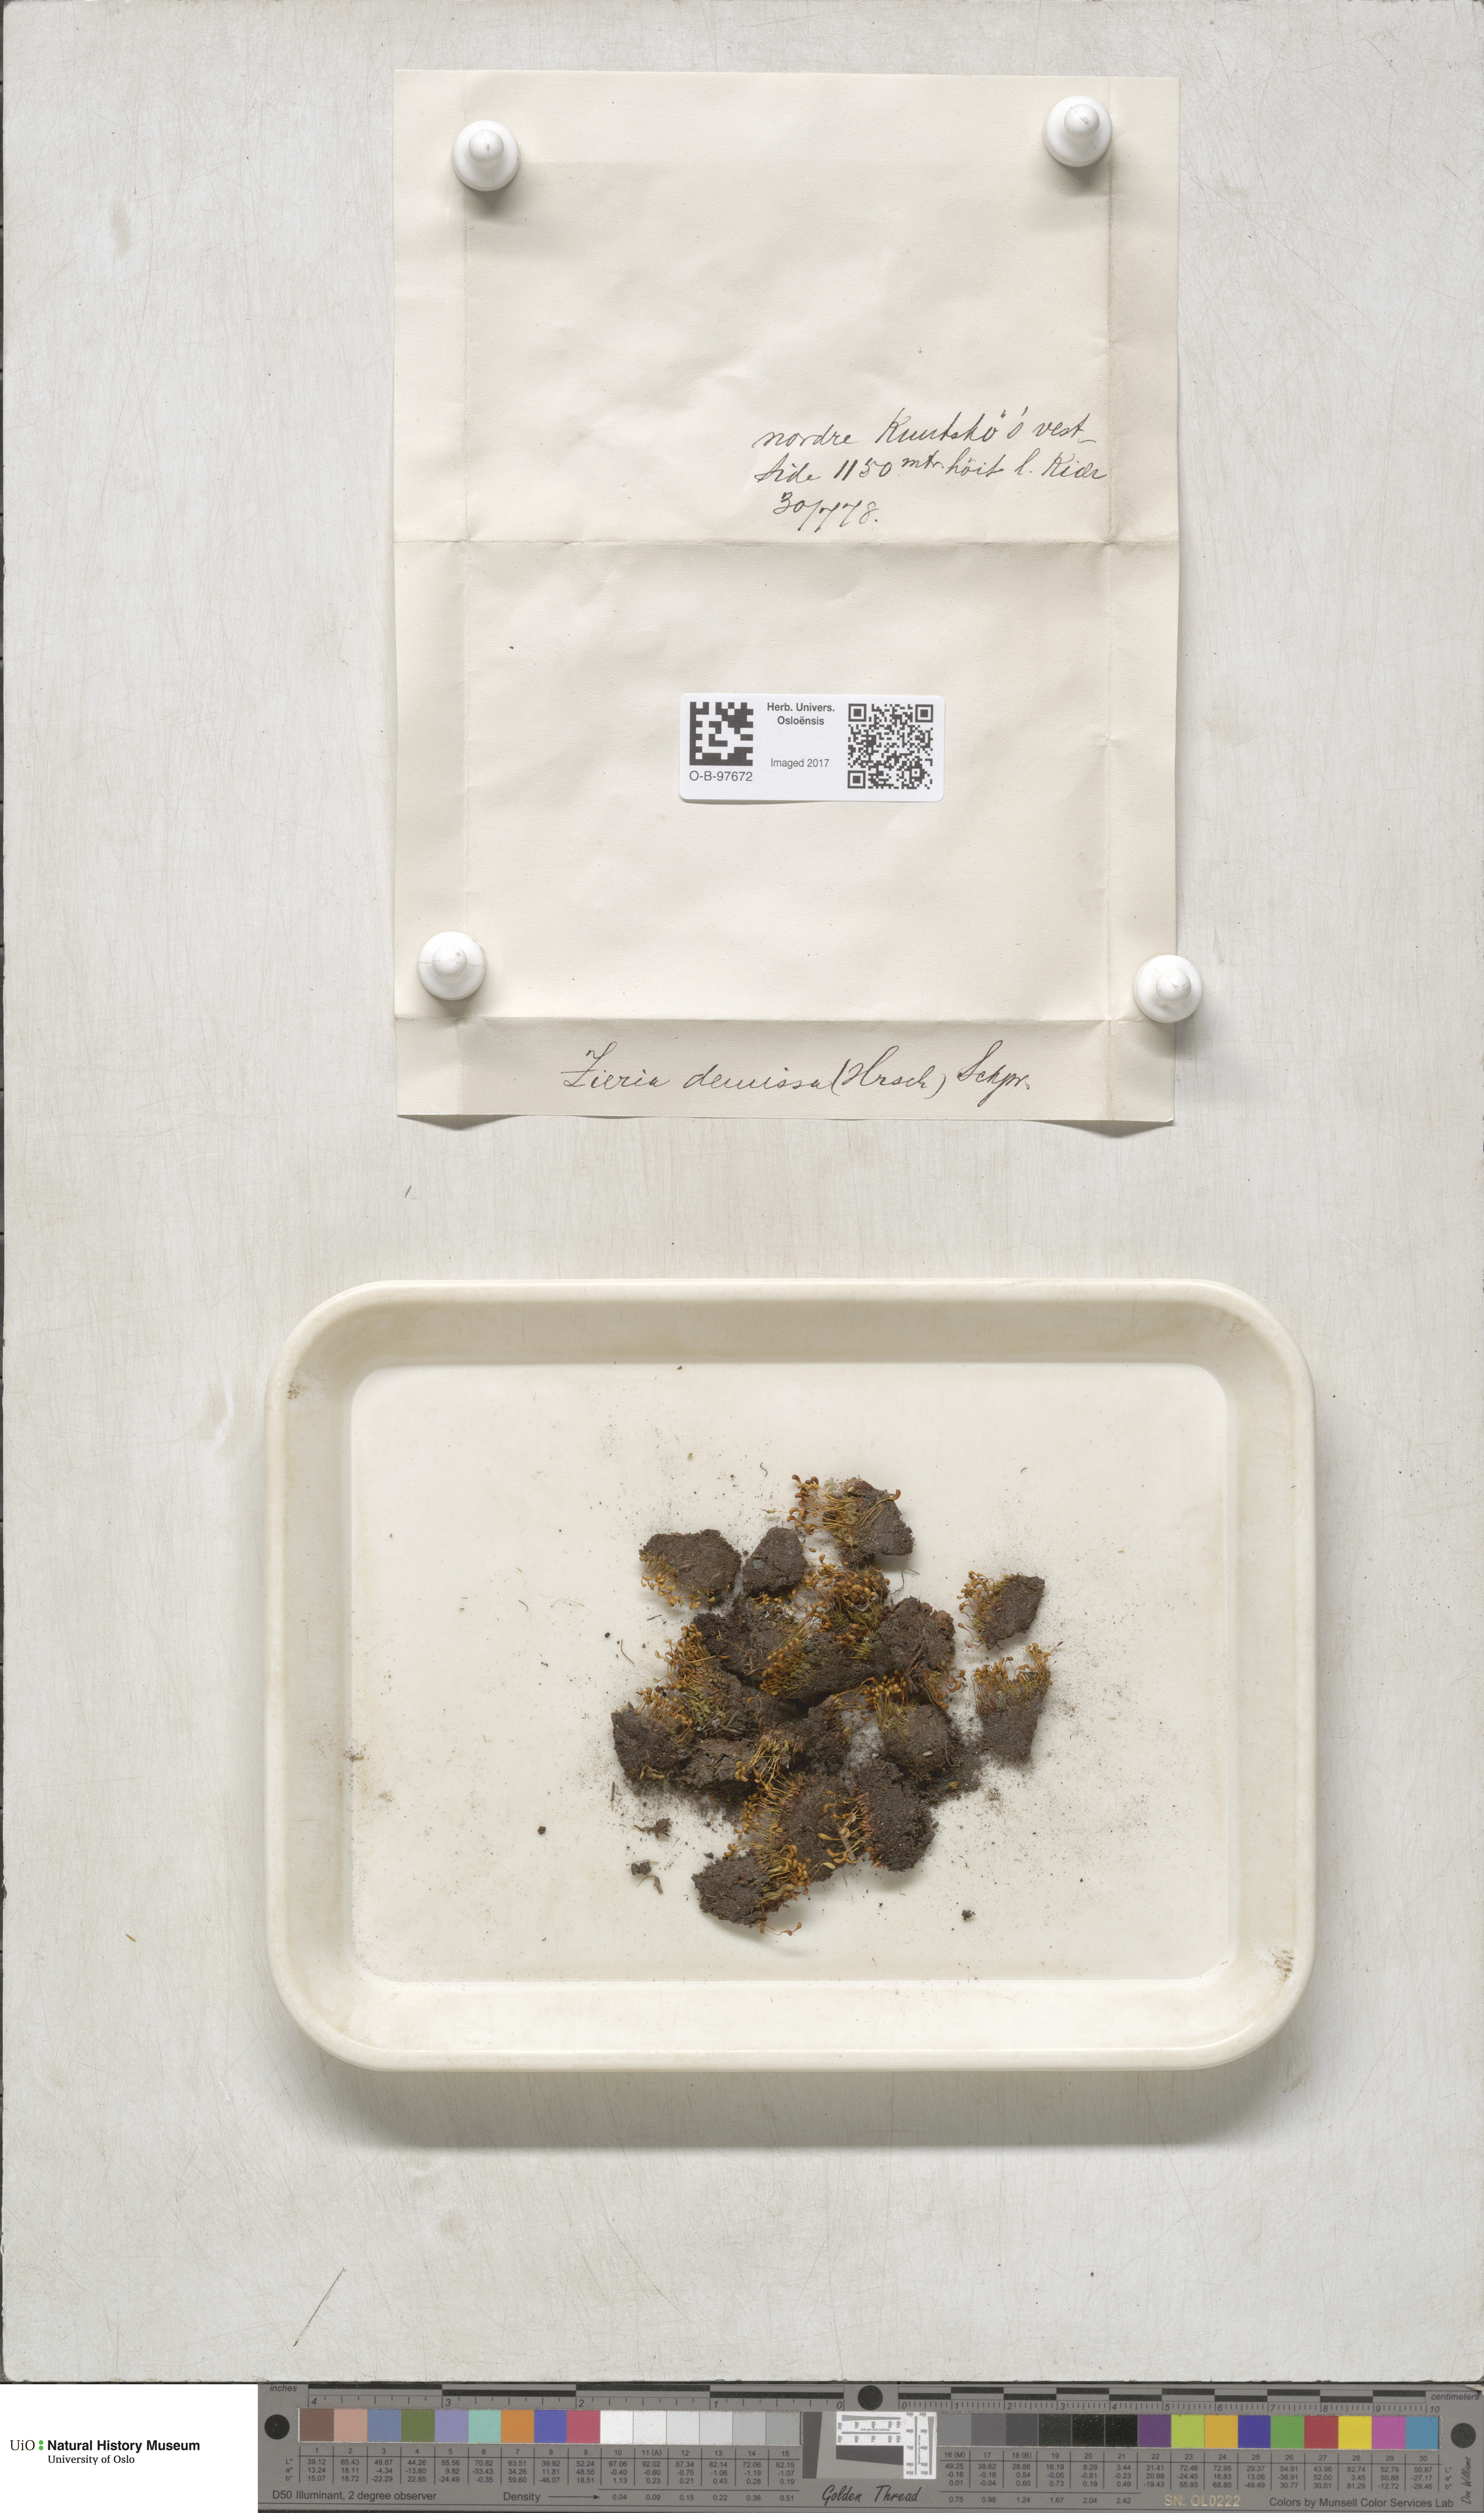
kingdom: Plantae
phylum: Bryophyta
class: Bryopsida
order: Bryales
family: Bryaceae
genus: Plagiobryum
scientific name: Plagiobryum demissum
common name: Drooping hump moss
